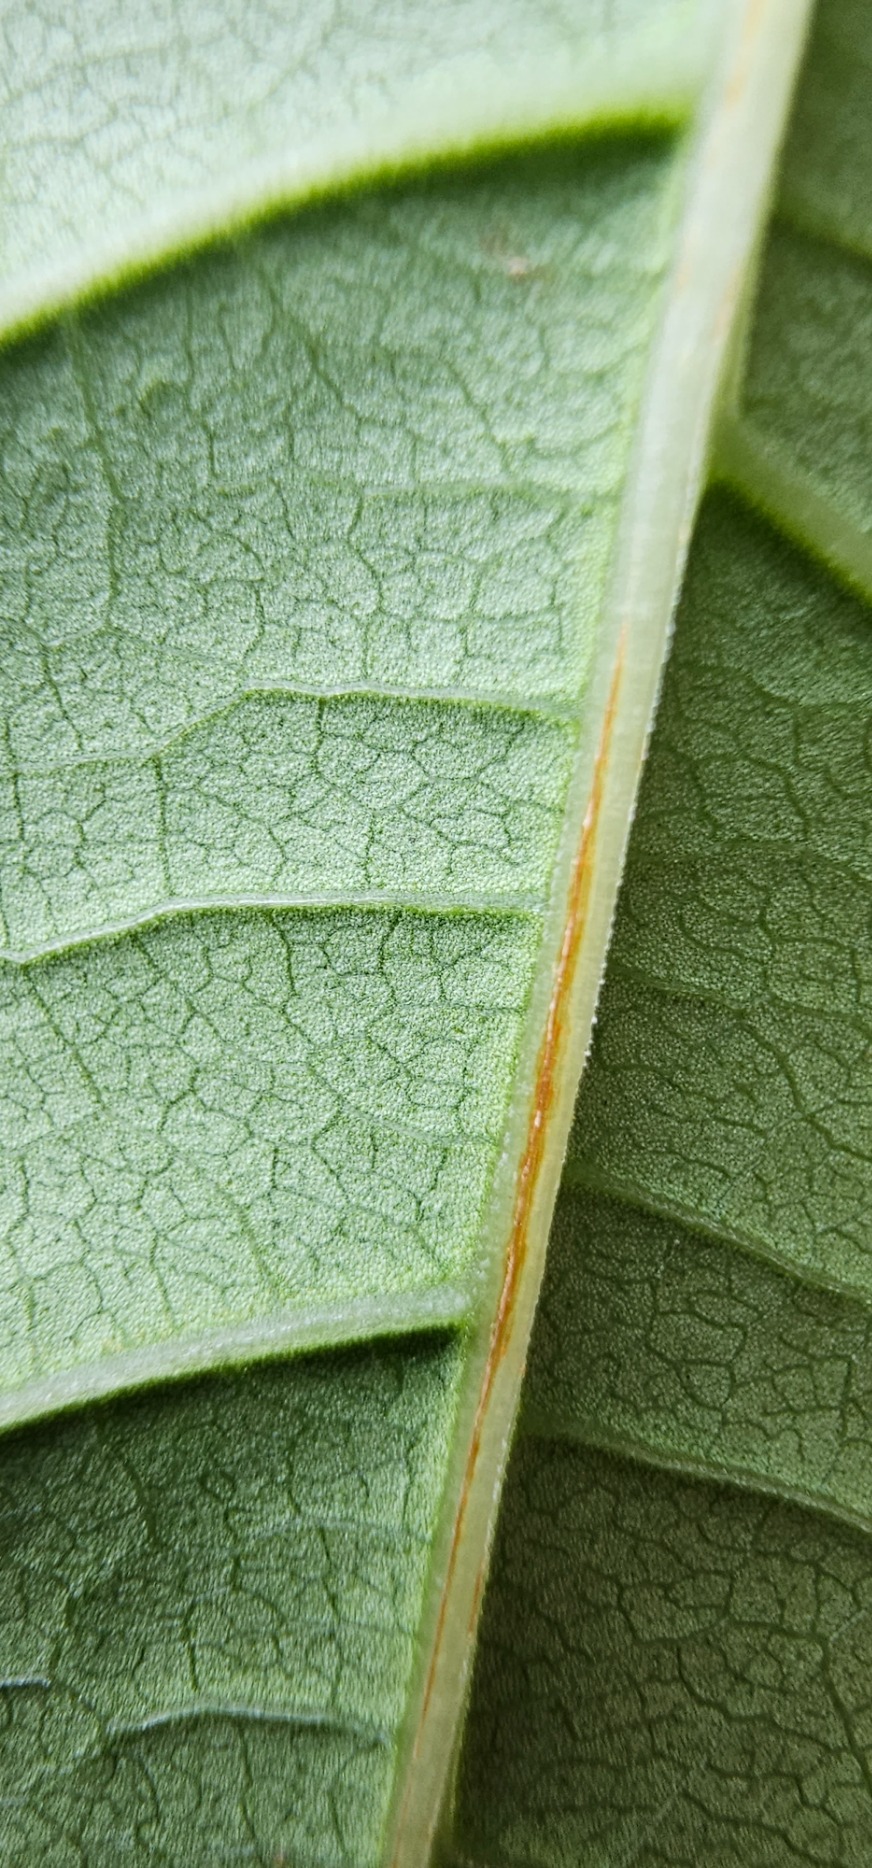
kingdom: Plantae
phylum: Tracheophyta
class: Magnoliopsida
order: Caryophyllales
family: Polygonaceae
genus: Reynoutria
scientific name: Reynoutria japonica
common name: Japan-pileurt
